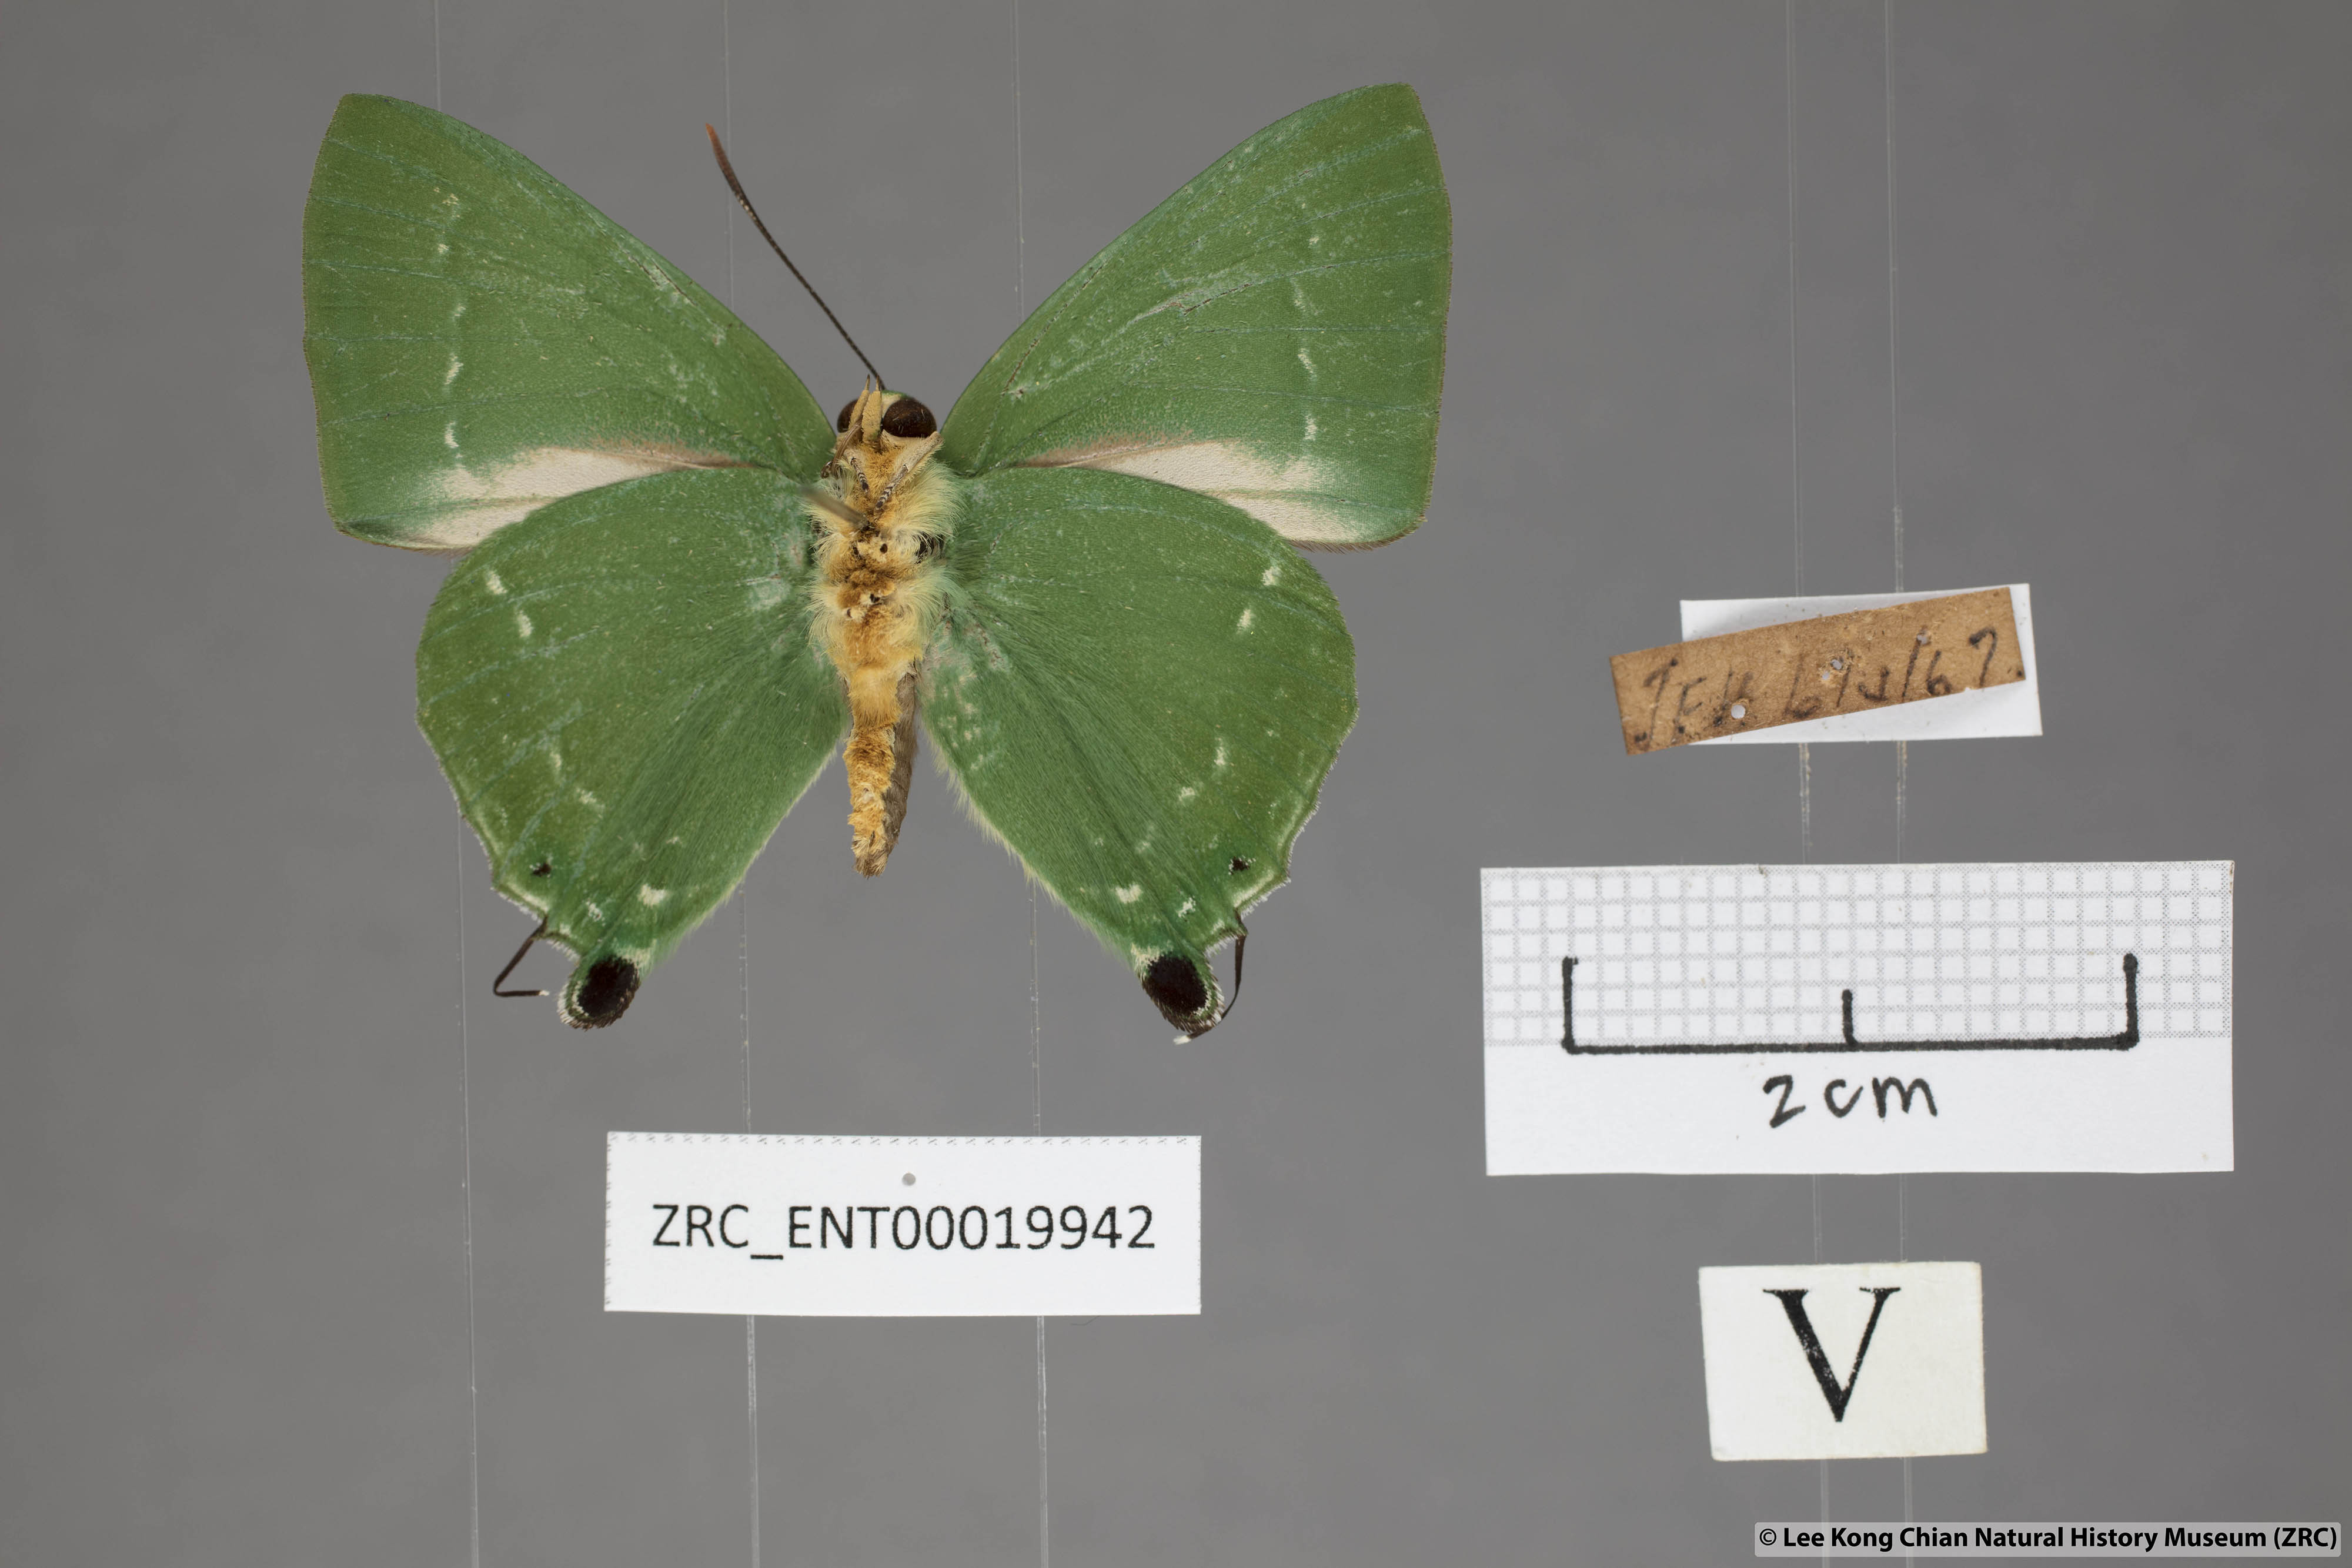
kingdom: Animalia
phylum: Arthropoda
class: Insecta
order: Lepidoptera
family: Lycaenidae
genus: Artipe
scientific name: Artipe eryx
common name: Green flash
